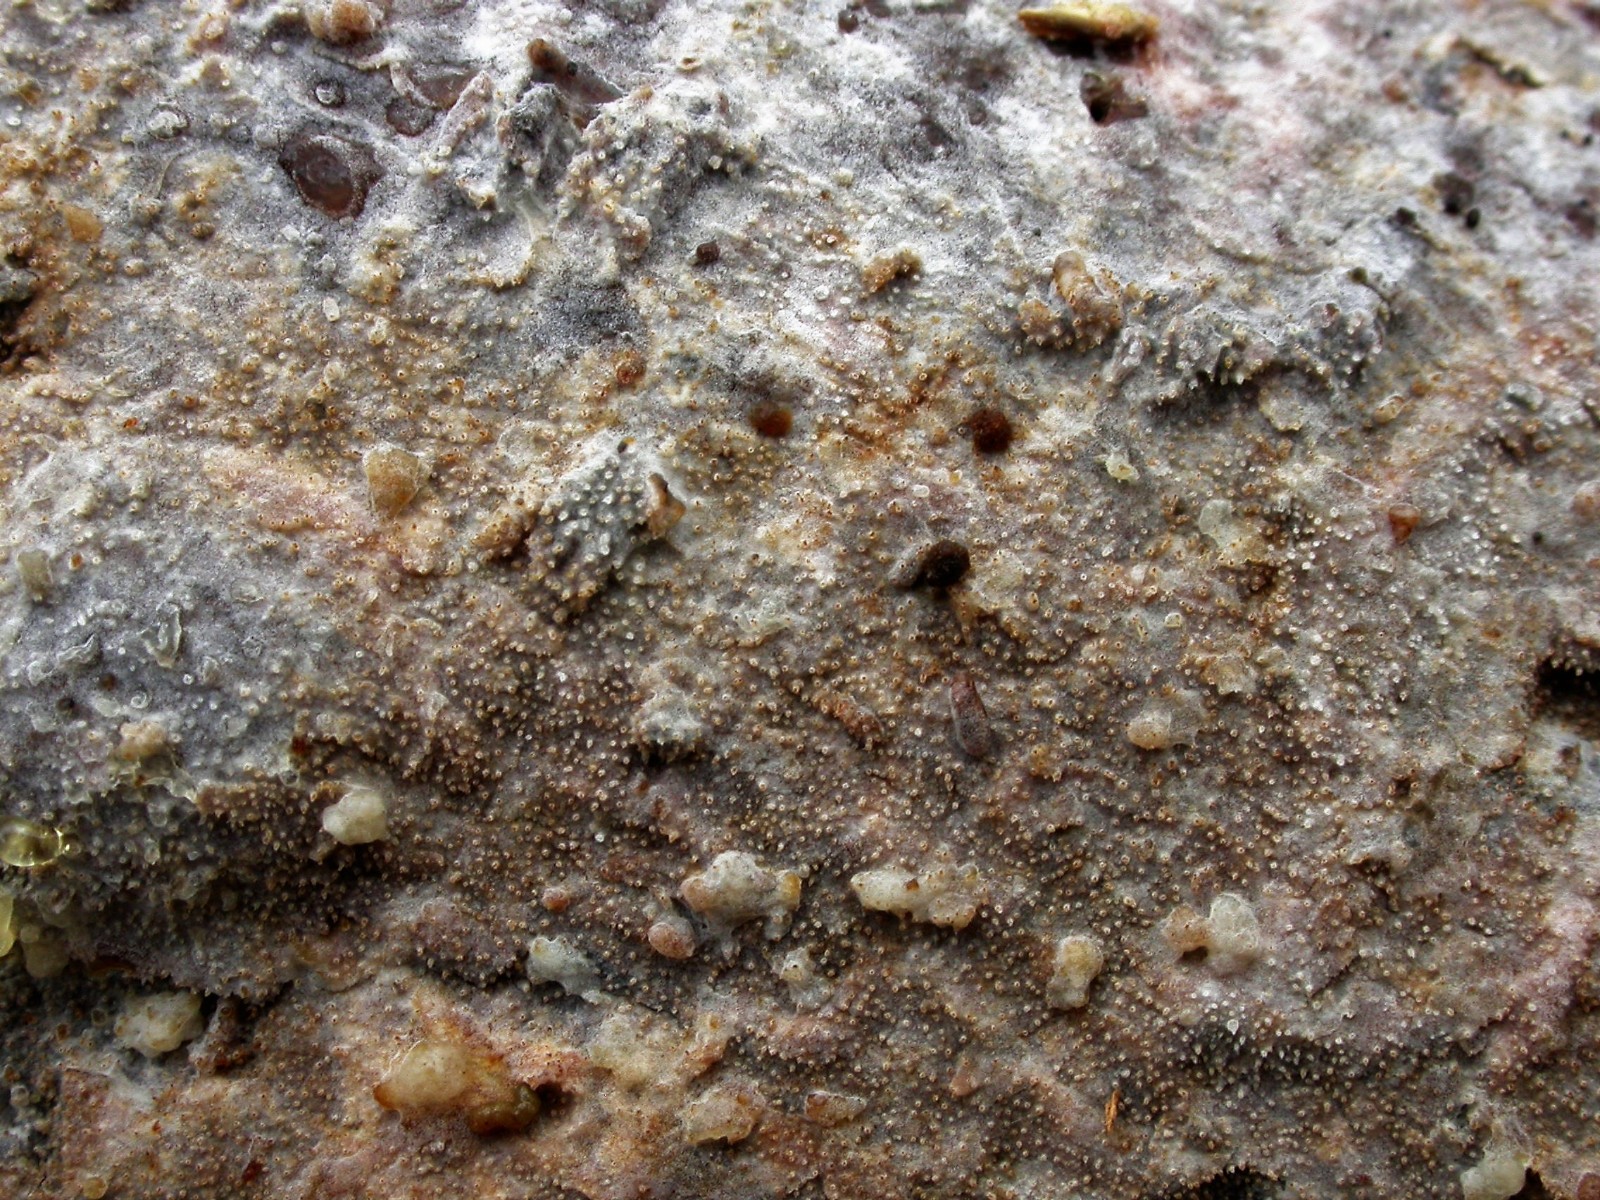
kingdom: Fungi
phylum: Basidiomycota
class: Agaricomycetes
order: Hymenochaetales
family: Rickenellaceae
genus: Resinicium
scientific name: Resinicium bicolor
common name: almindelig vokstand
